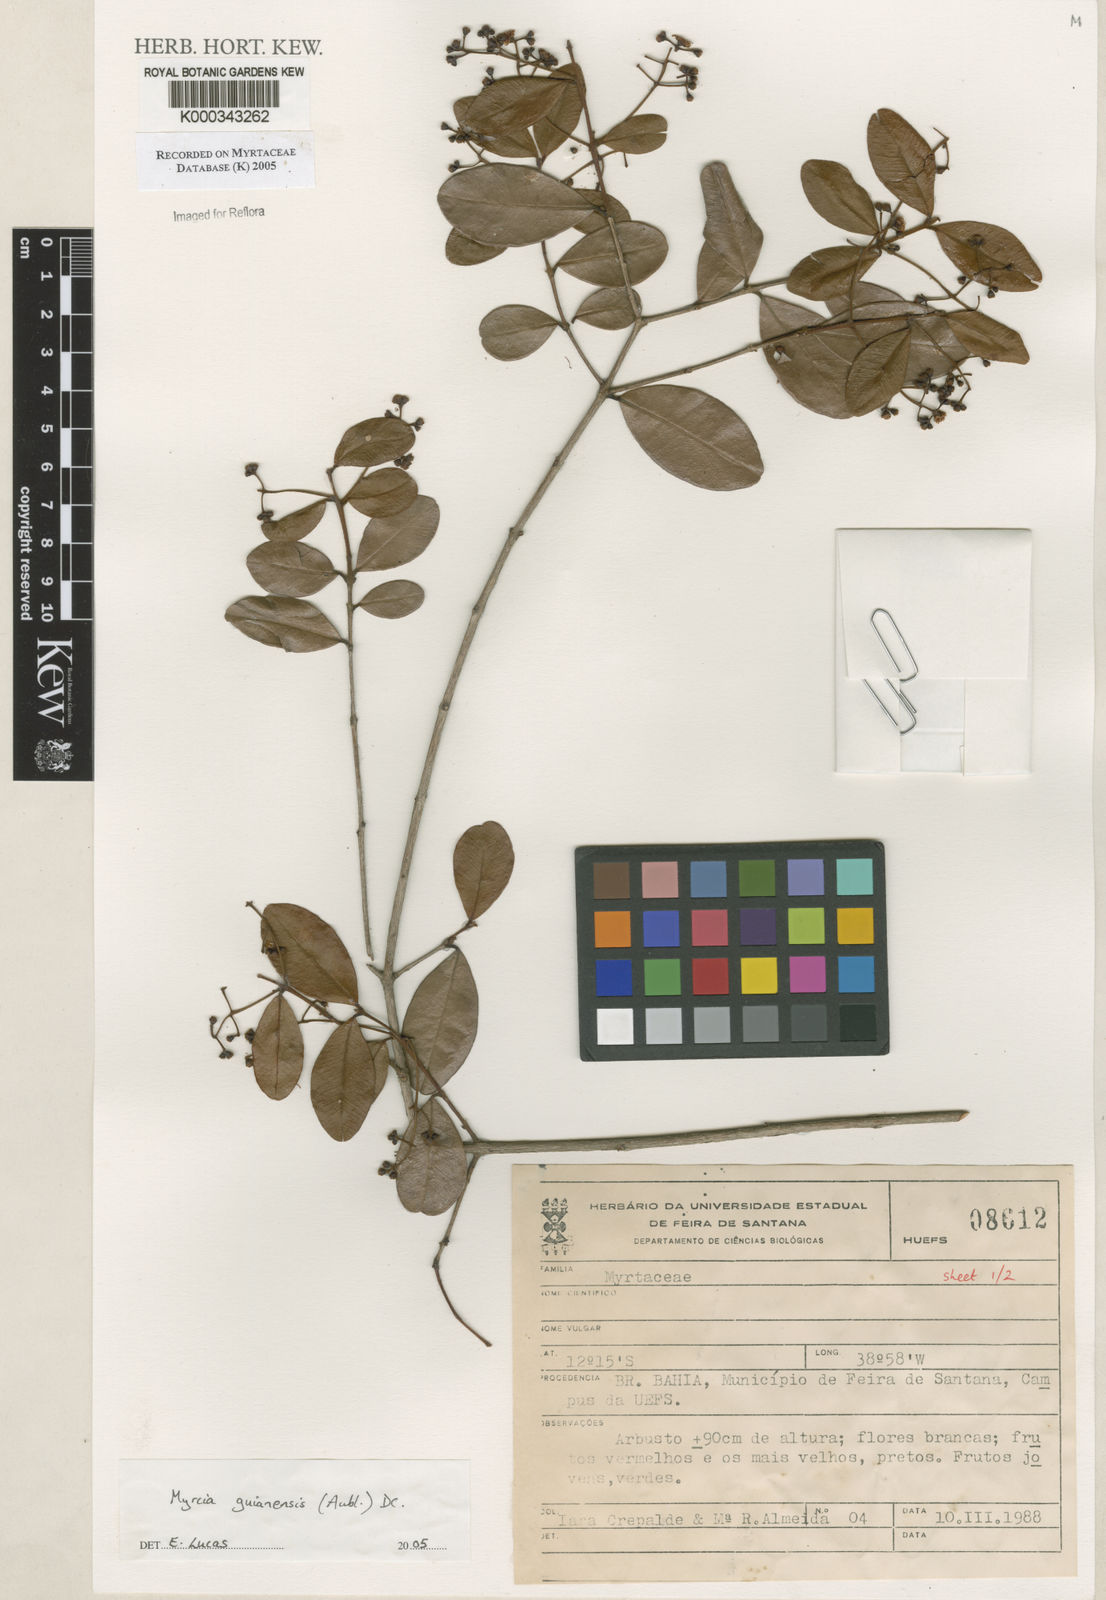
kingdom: Plantae
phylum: Tracheophyta
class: Magnoliopsida
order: Myrtales
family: Myrtaceae
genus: Myrcia
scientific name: Myrcia guianensis
